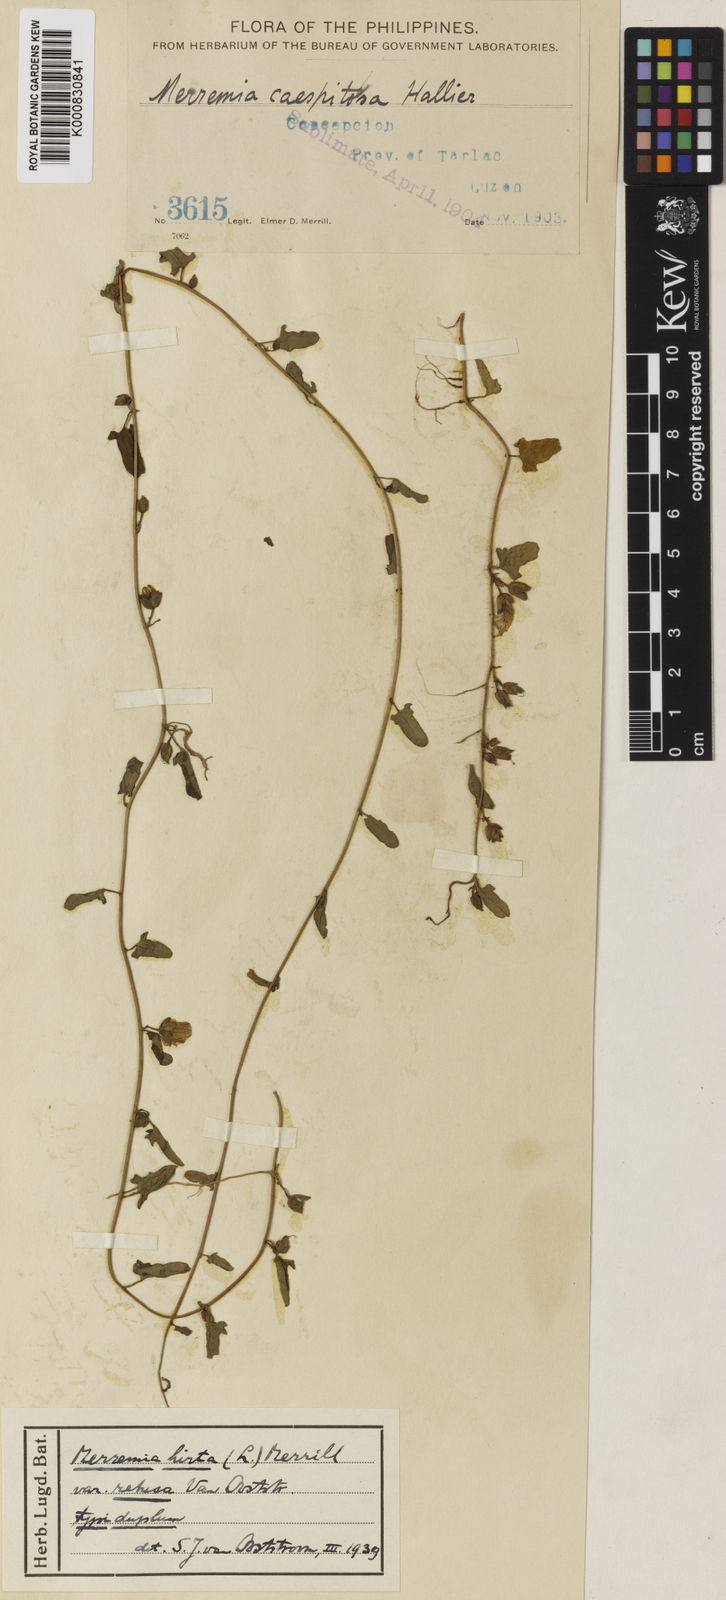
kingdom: Plantae
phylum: Tracheophyta
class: Magnoliopsida
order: Solanales
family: Convolvulaceae
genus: Merremia
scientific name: Merremia hirta
